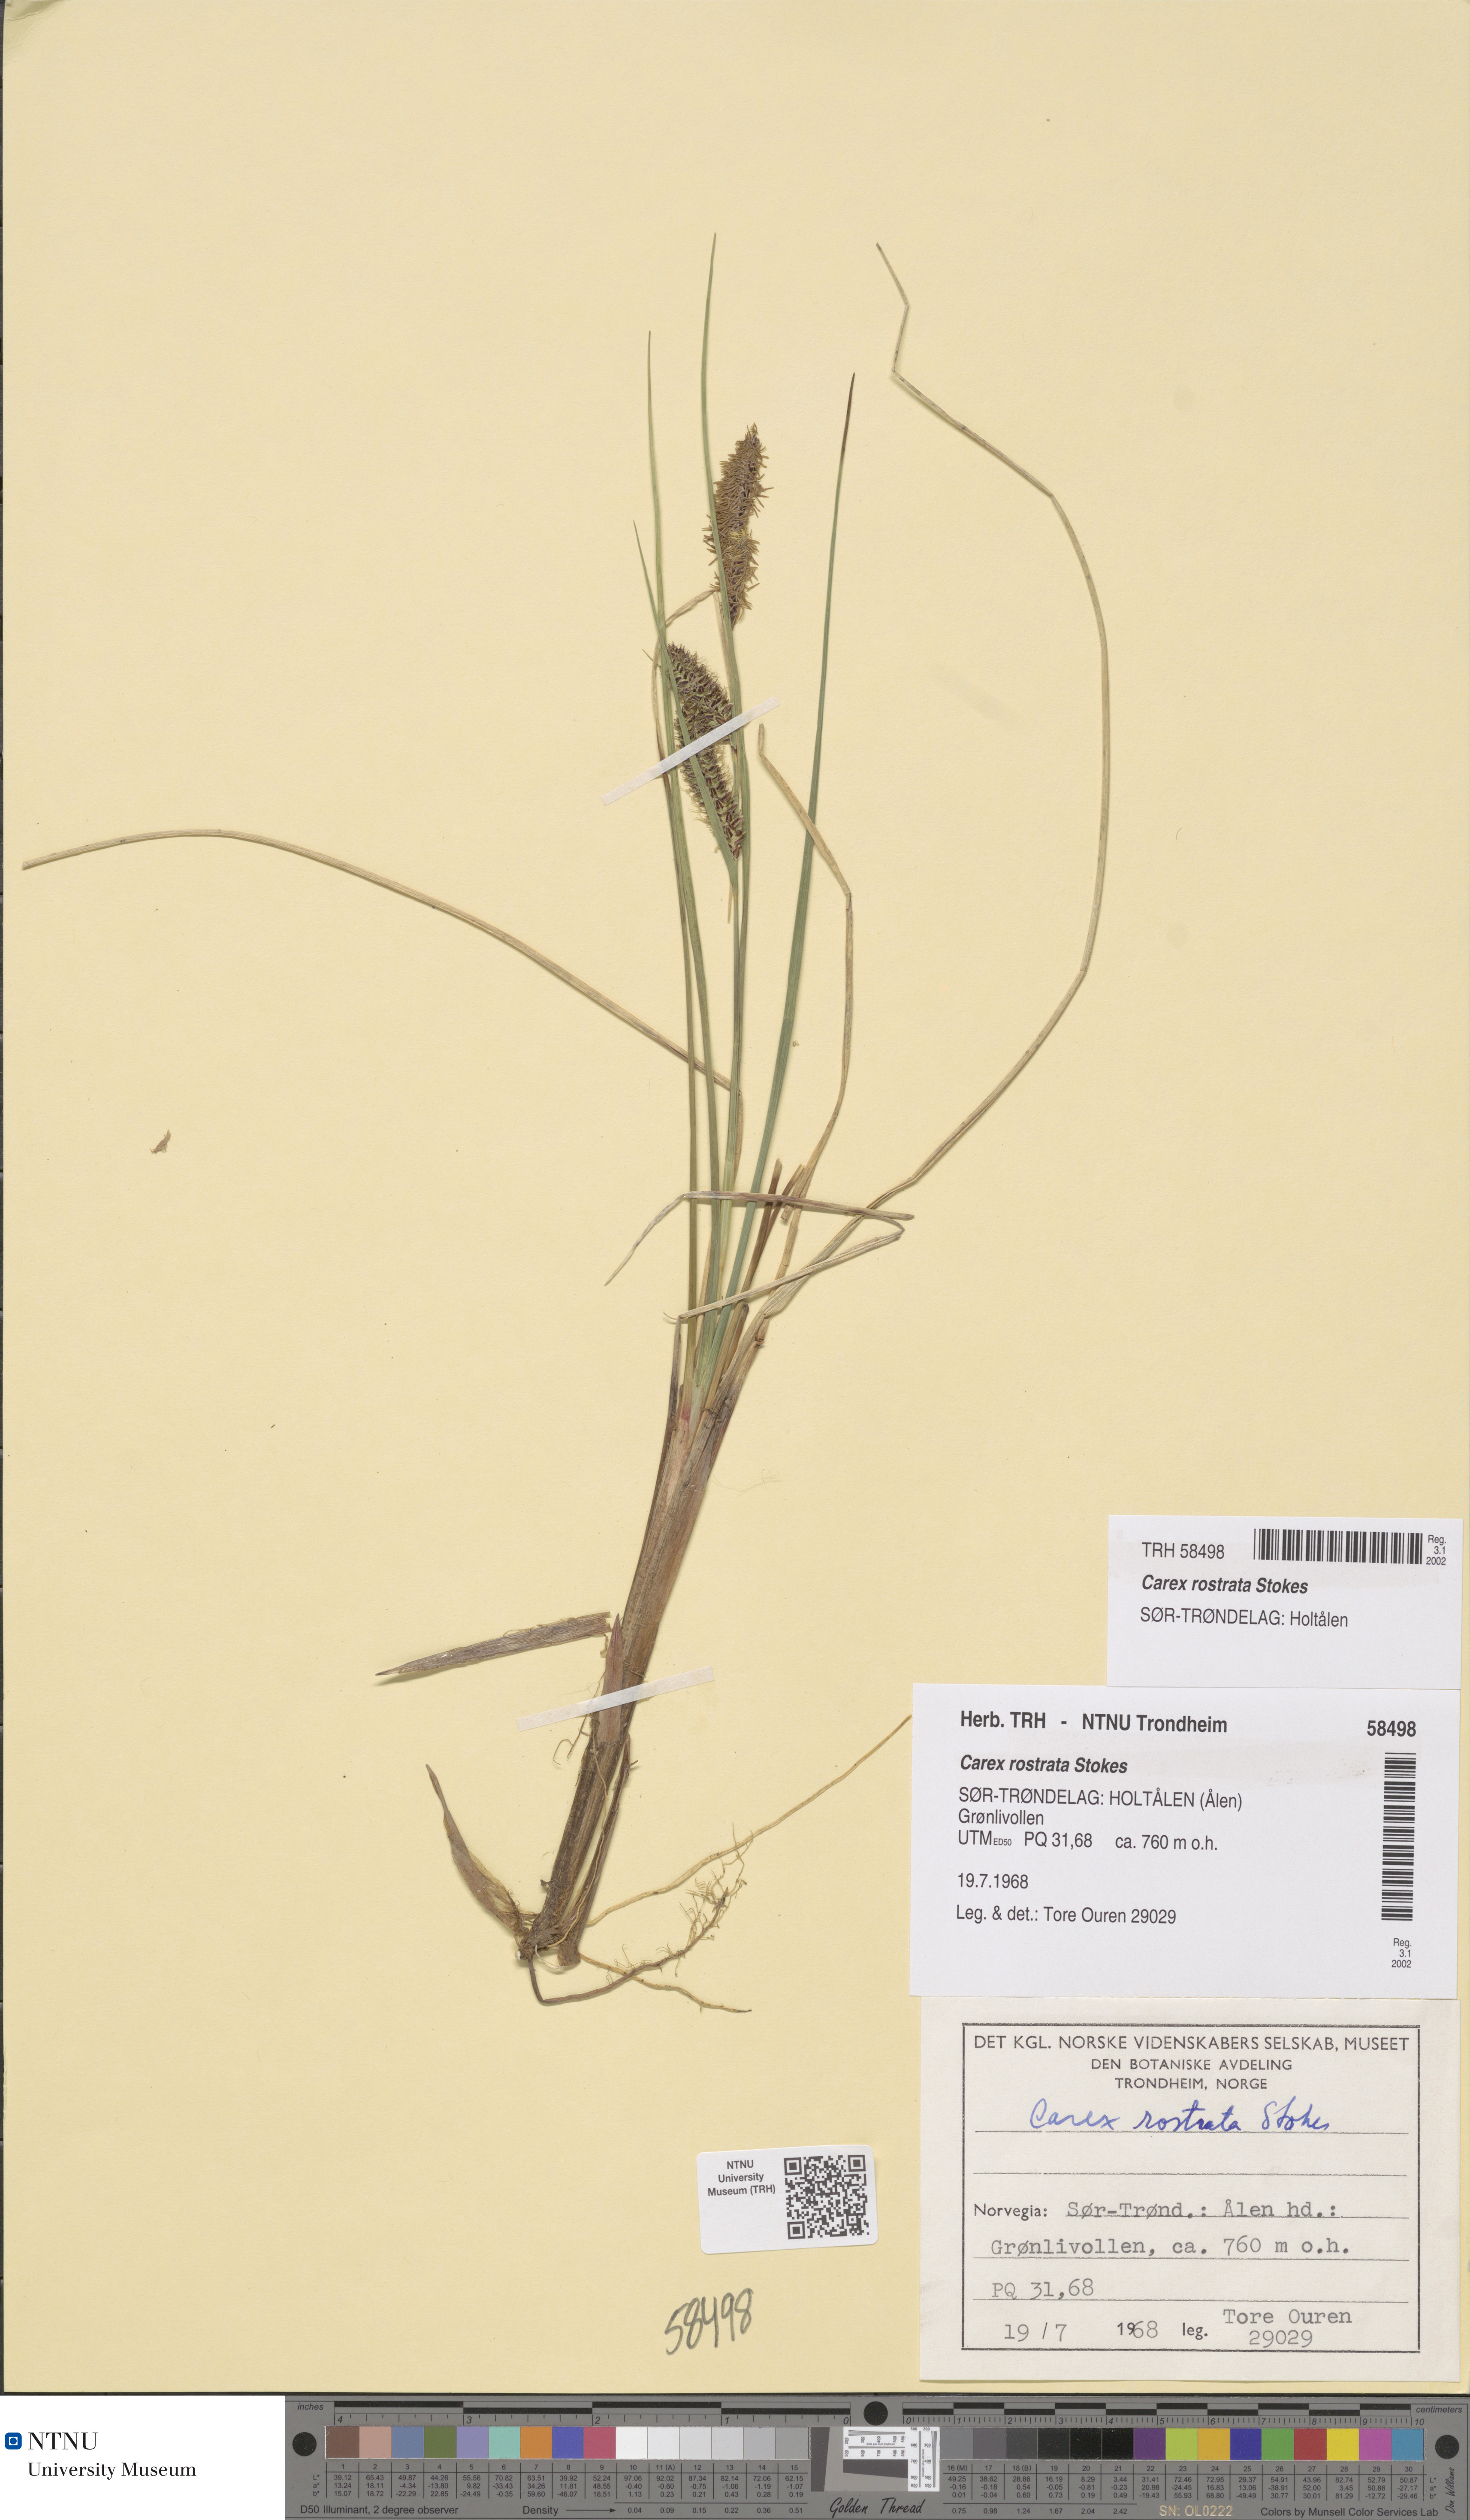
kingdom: Plantae
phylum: Tracheophyta
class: Liliopsida
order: Poales
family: Cyperaceae
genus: Carex
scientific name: Carex rostrata
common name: Bottle sedge
